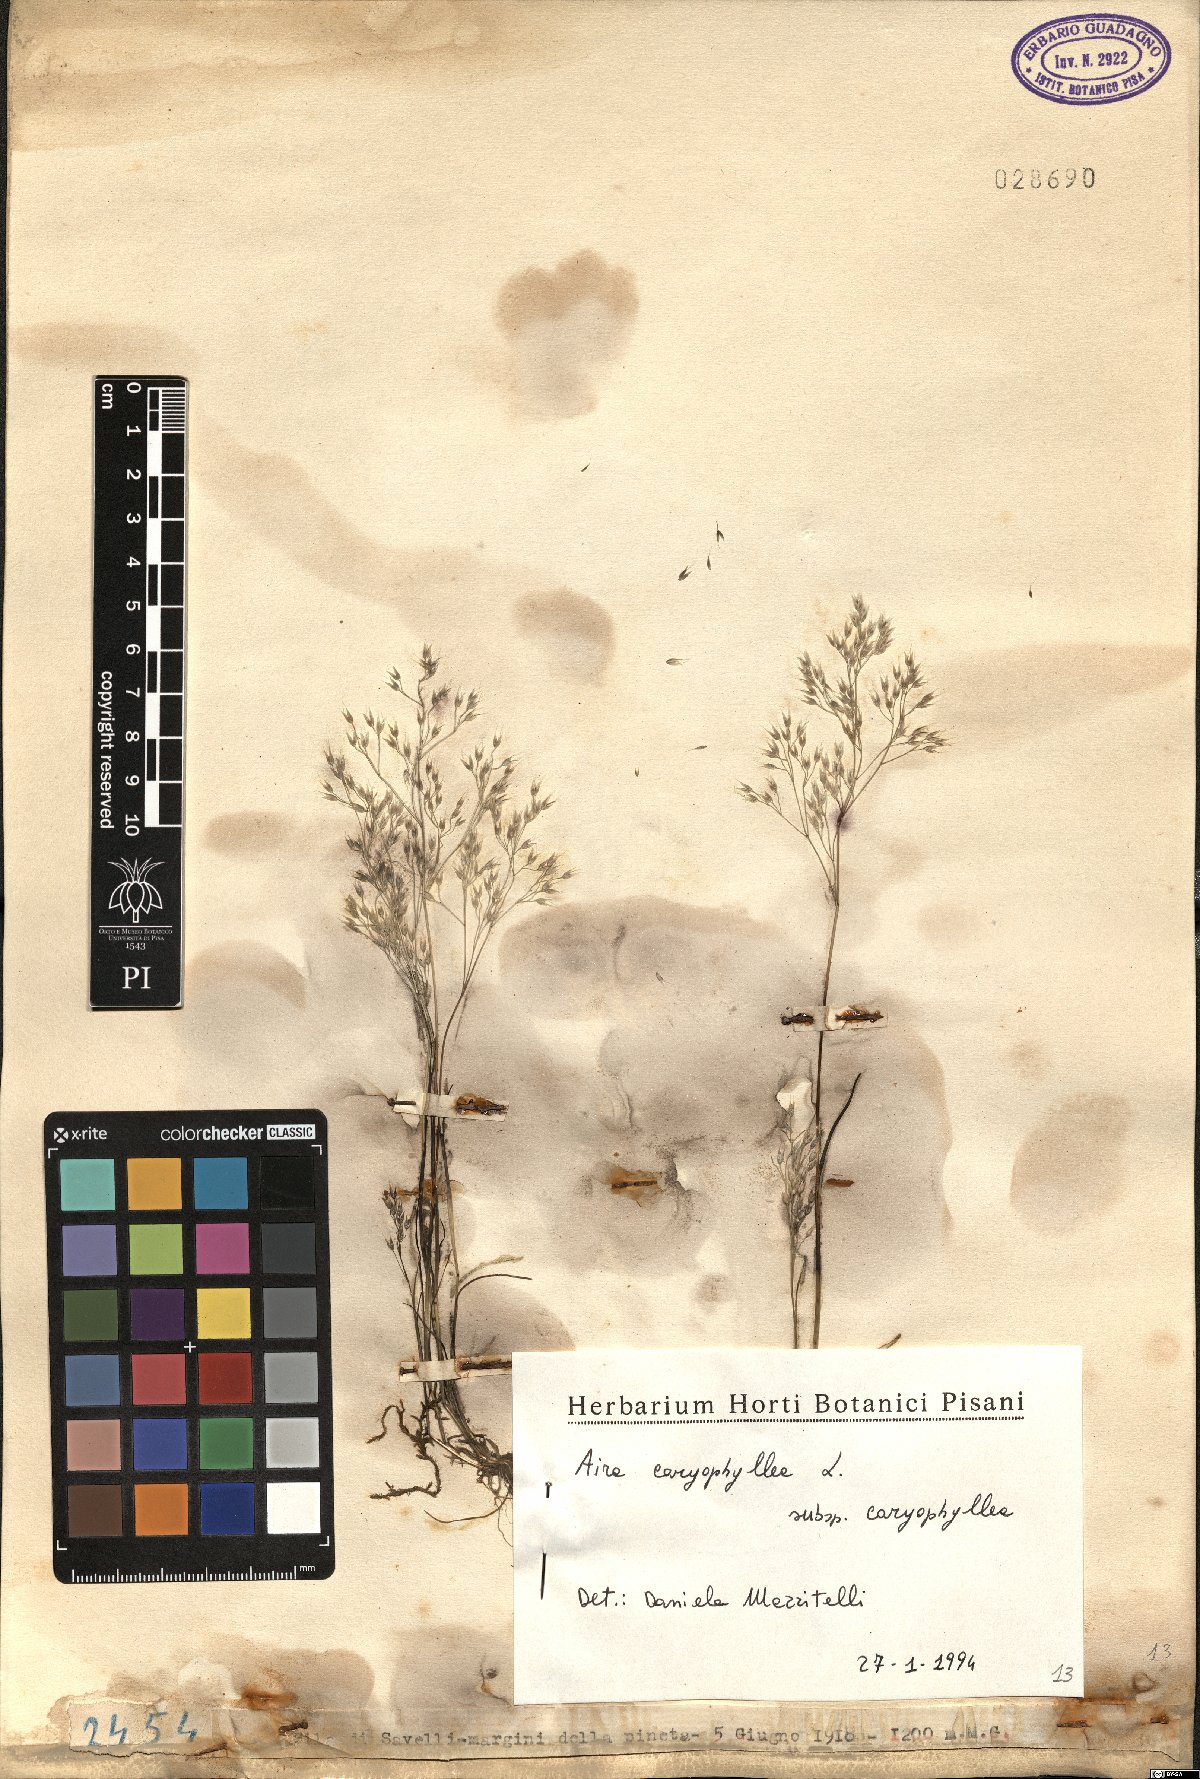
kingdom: Plantae
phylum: Tracheophyta
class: Liliopsida
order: Poales
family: Poaceae
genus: Aira
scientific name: Aira caryophyllea
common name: Silver hairgrass
